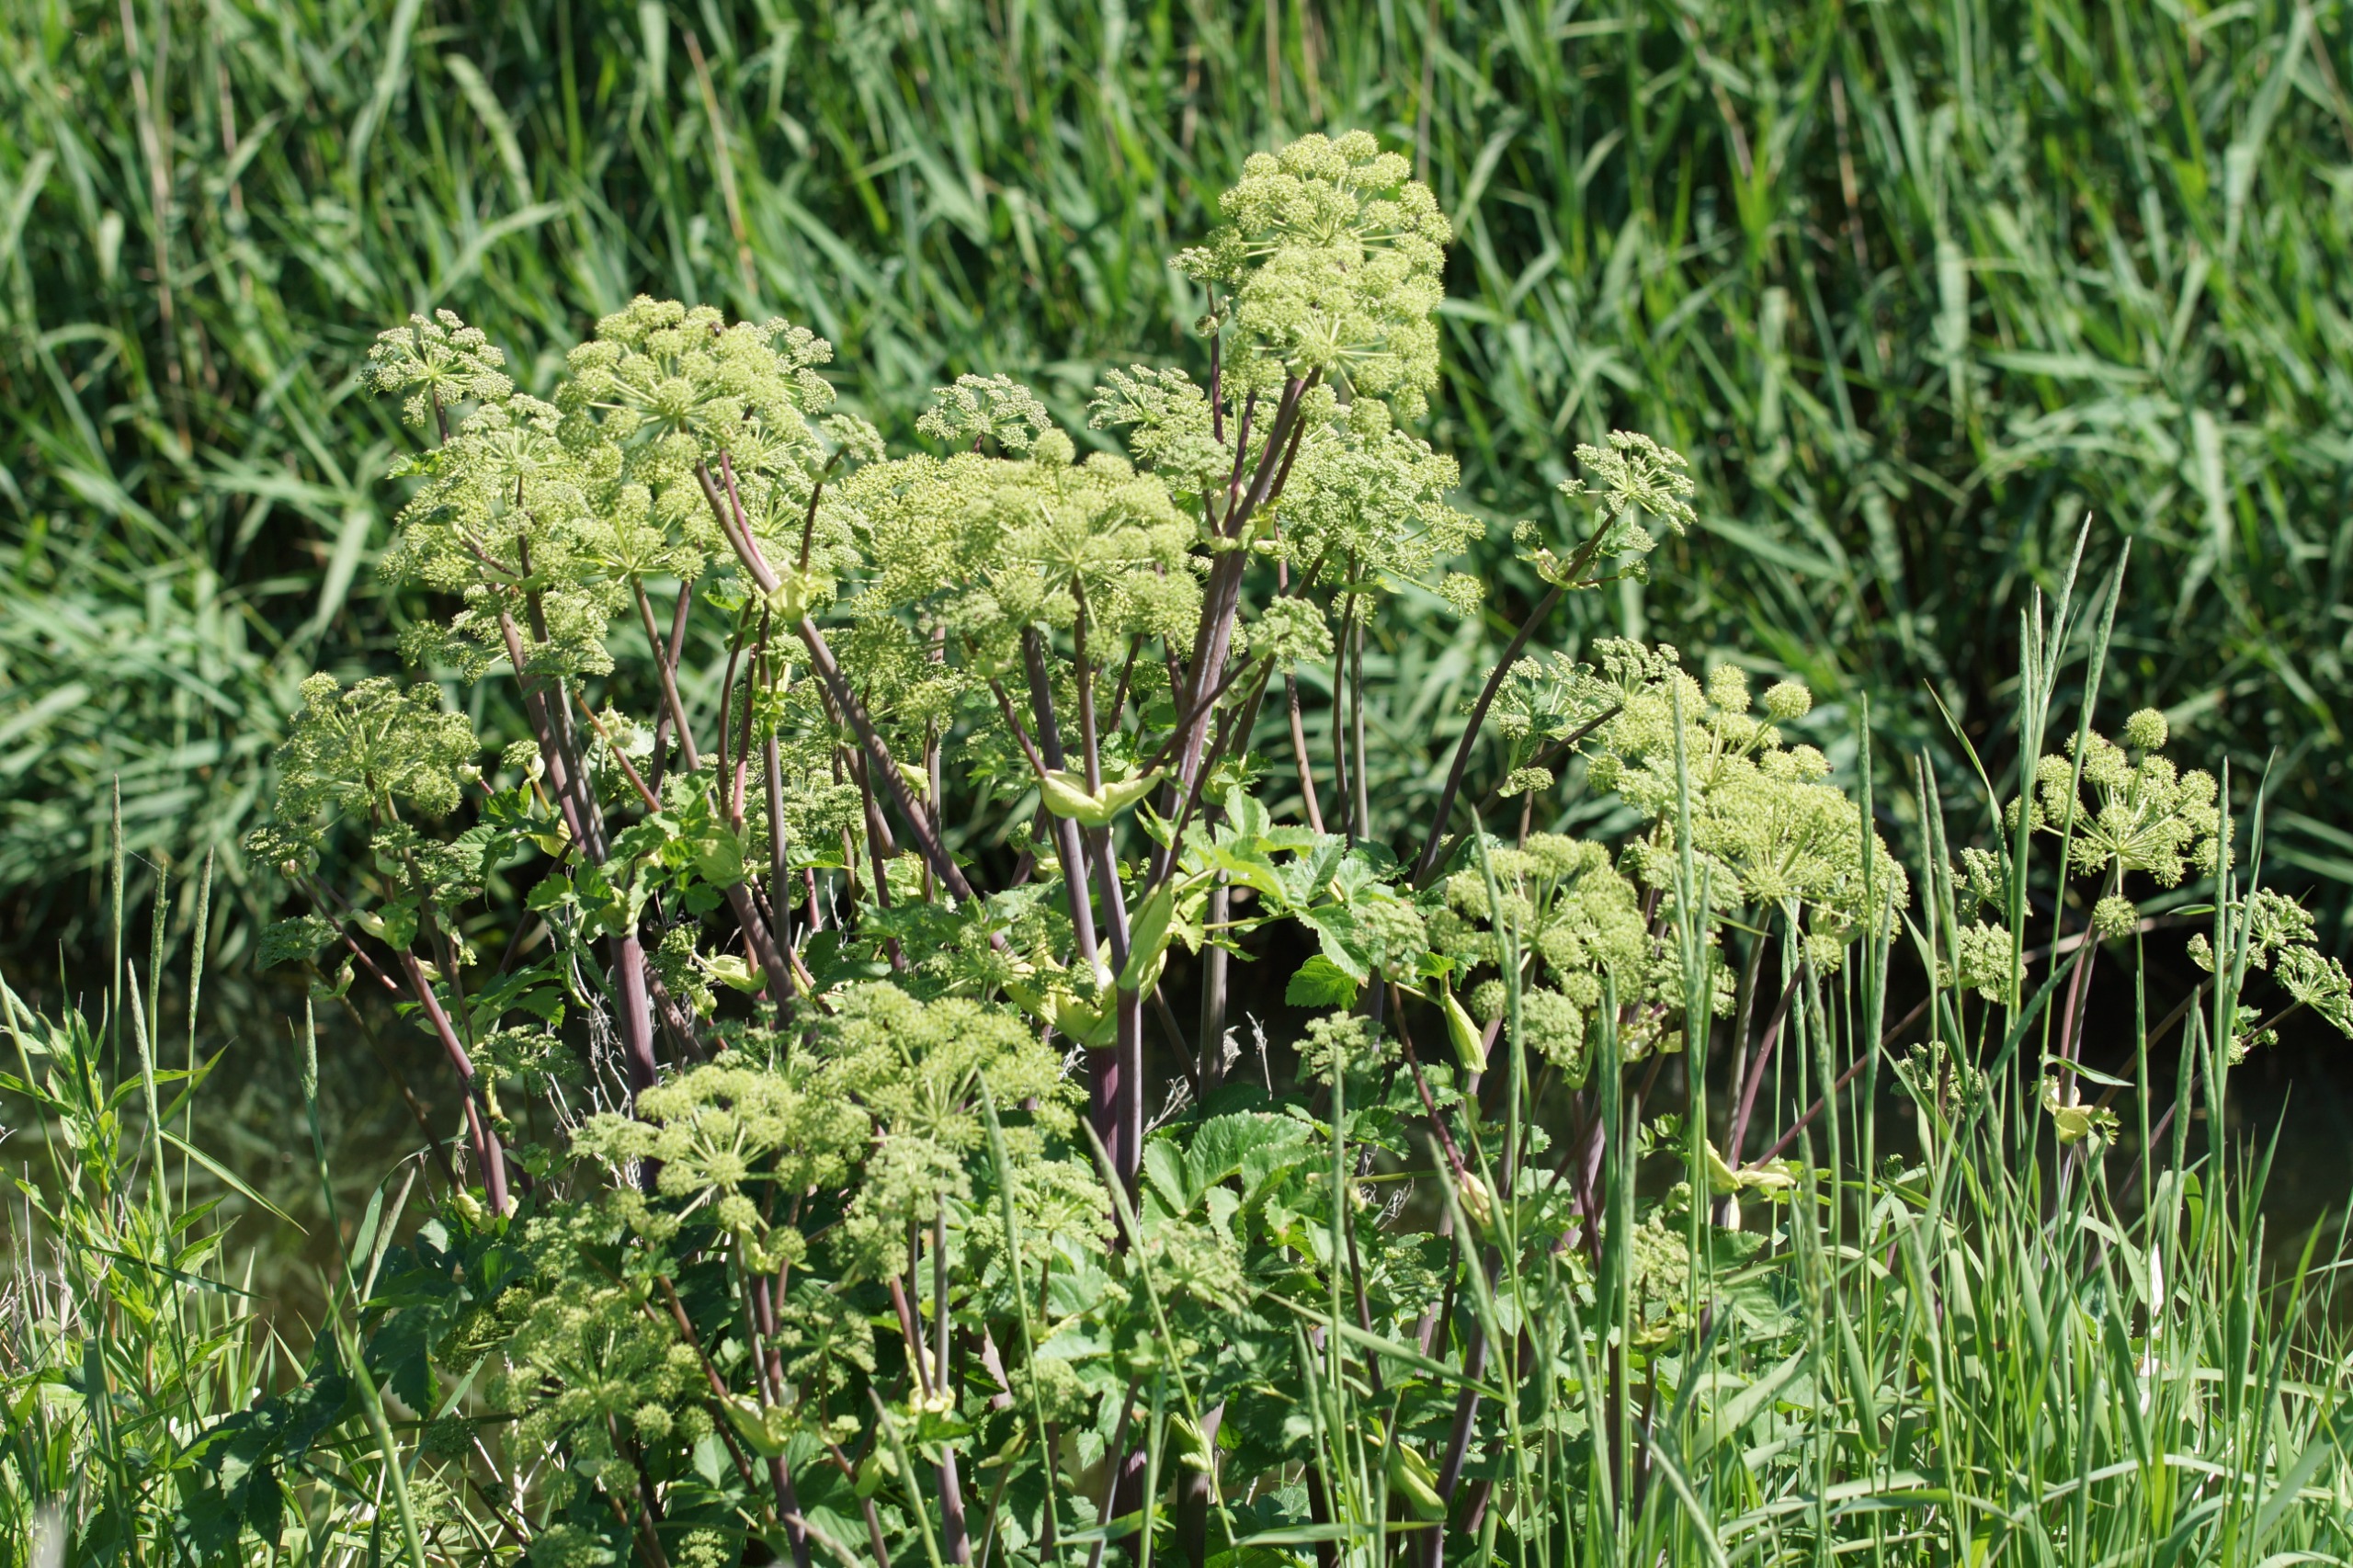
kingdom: Plantae
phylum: Tracheophyta
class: Magnoliopsida
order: Apiales
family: Apiaceae
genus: Angelica
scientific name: Angelica archangelica
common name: Kvan
